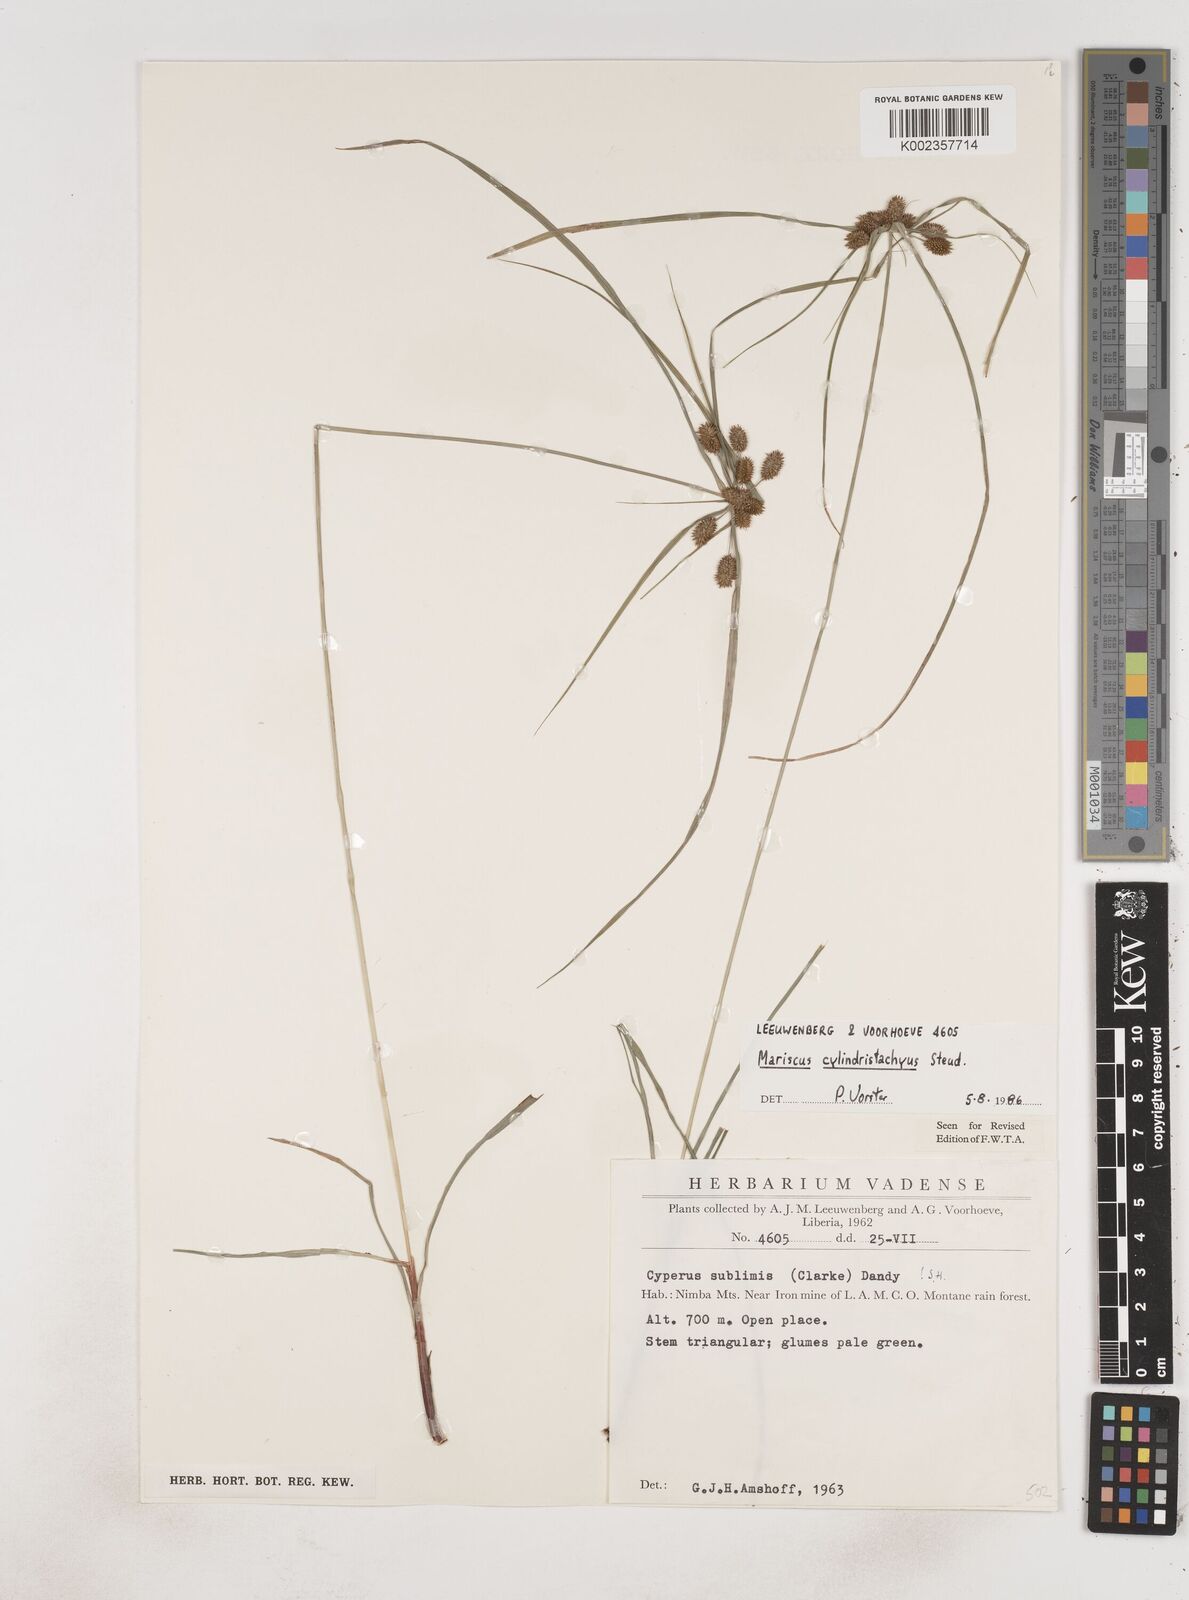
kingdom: Plantae
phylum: Tracheophyta
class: Liliopsida
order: Poales
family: Cyperaceae
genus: Cyperus
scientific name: Cyperus sublimis
